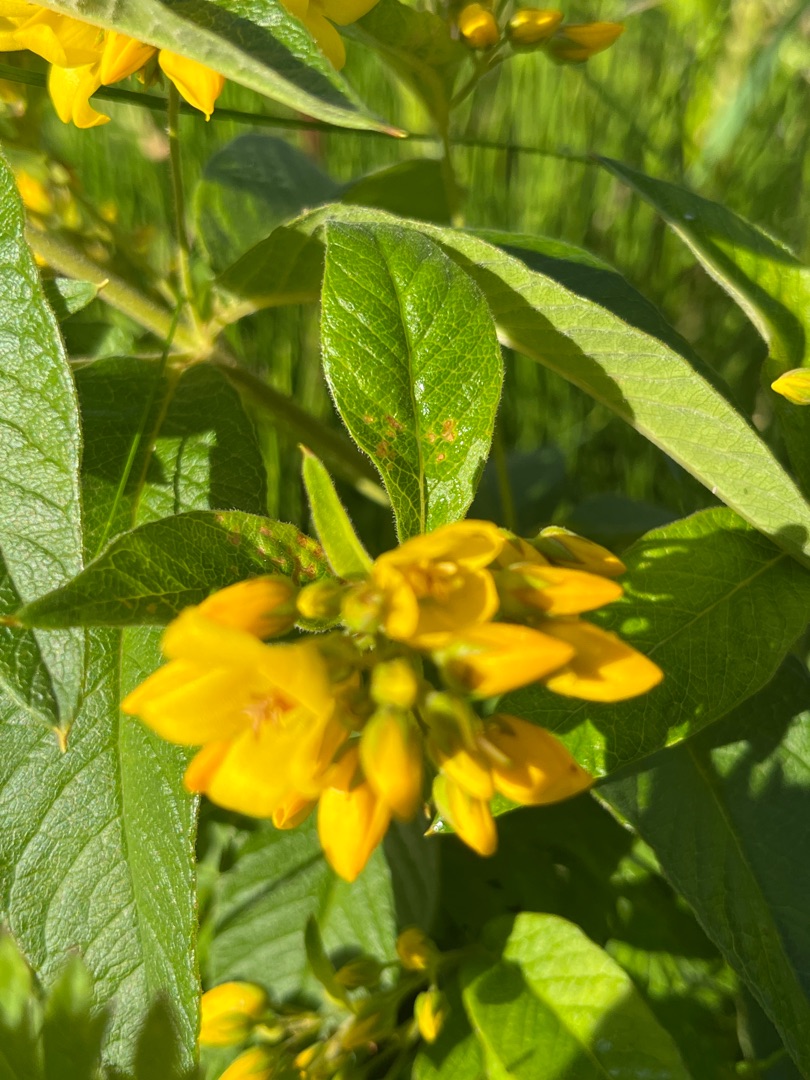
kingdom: Plantae
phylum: Tracheophyta
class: Magnoliopsida
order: Ericales
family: Primulaceae
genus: Lysimachia
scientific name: Lysimachia vulgaris
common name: Almindelig fredløs
